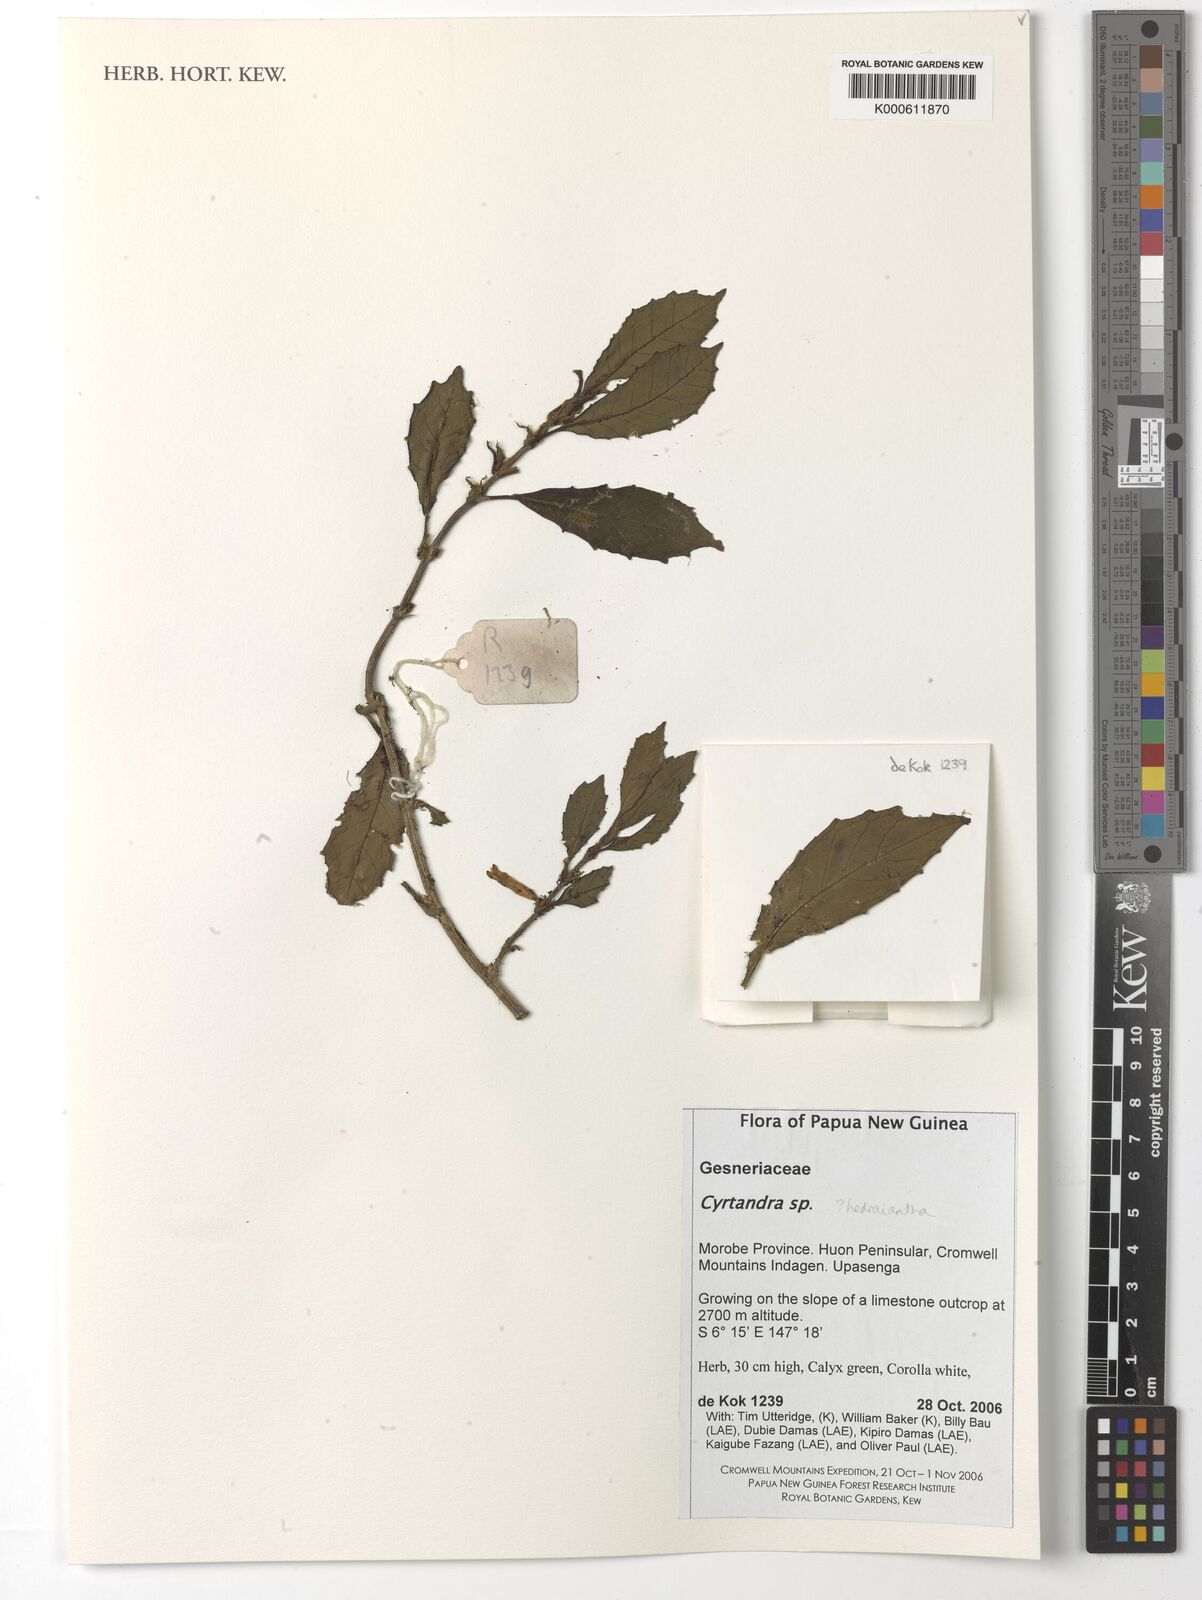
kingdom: Plantae
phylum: Tracheophyta
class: Magnoliopsida
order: Lamiales
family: Gesneriaceae
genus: Cyrtandra
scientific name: Cyrtandra
